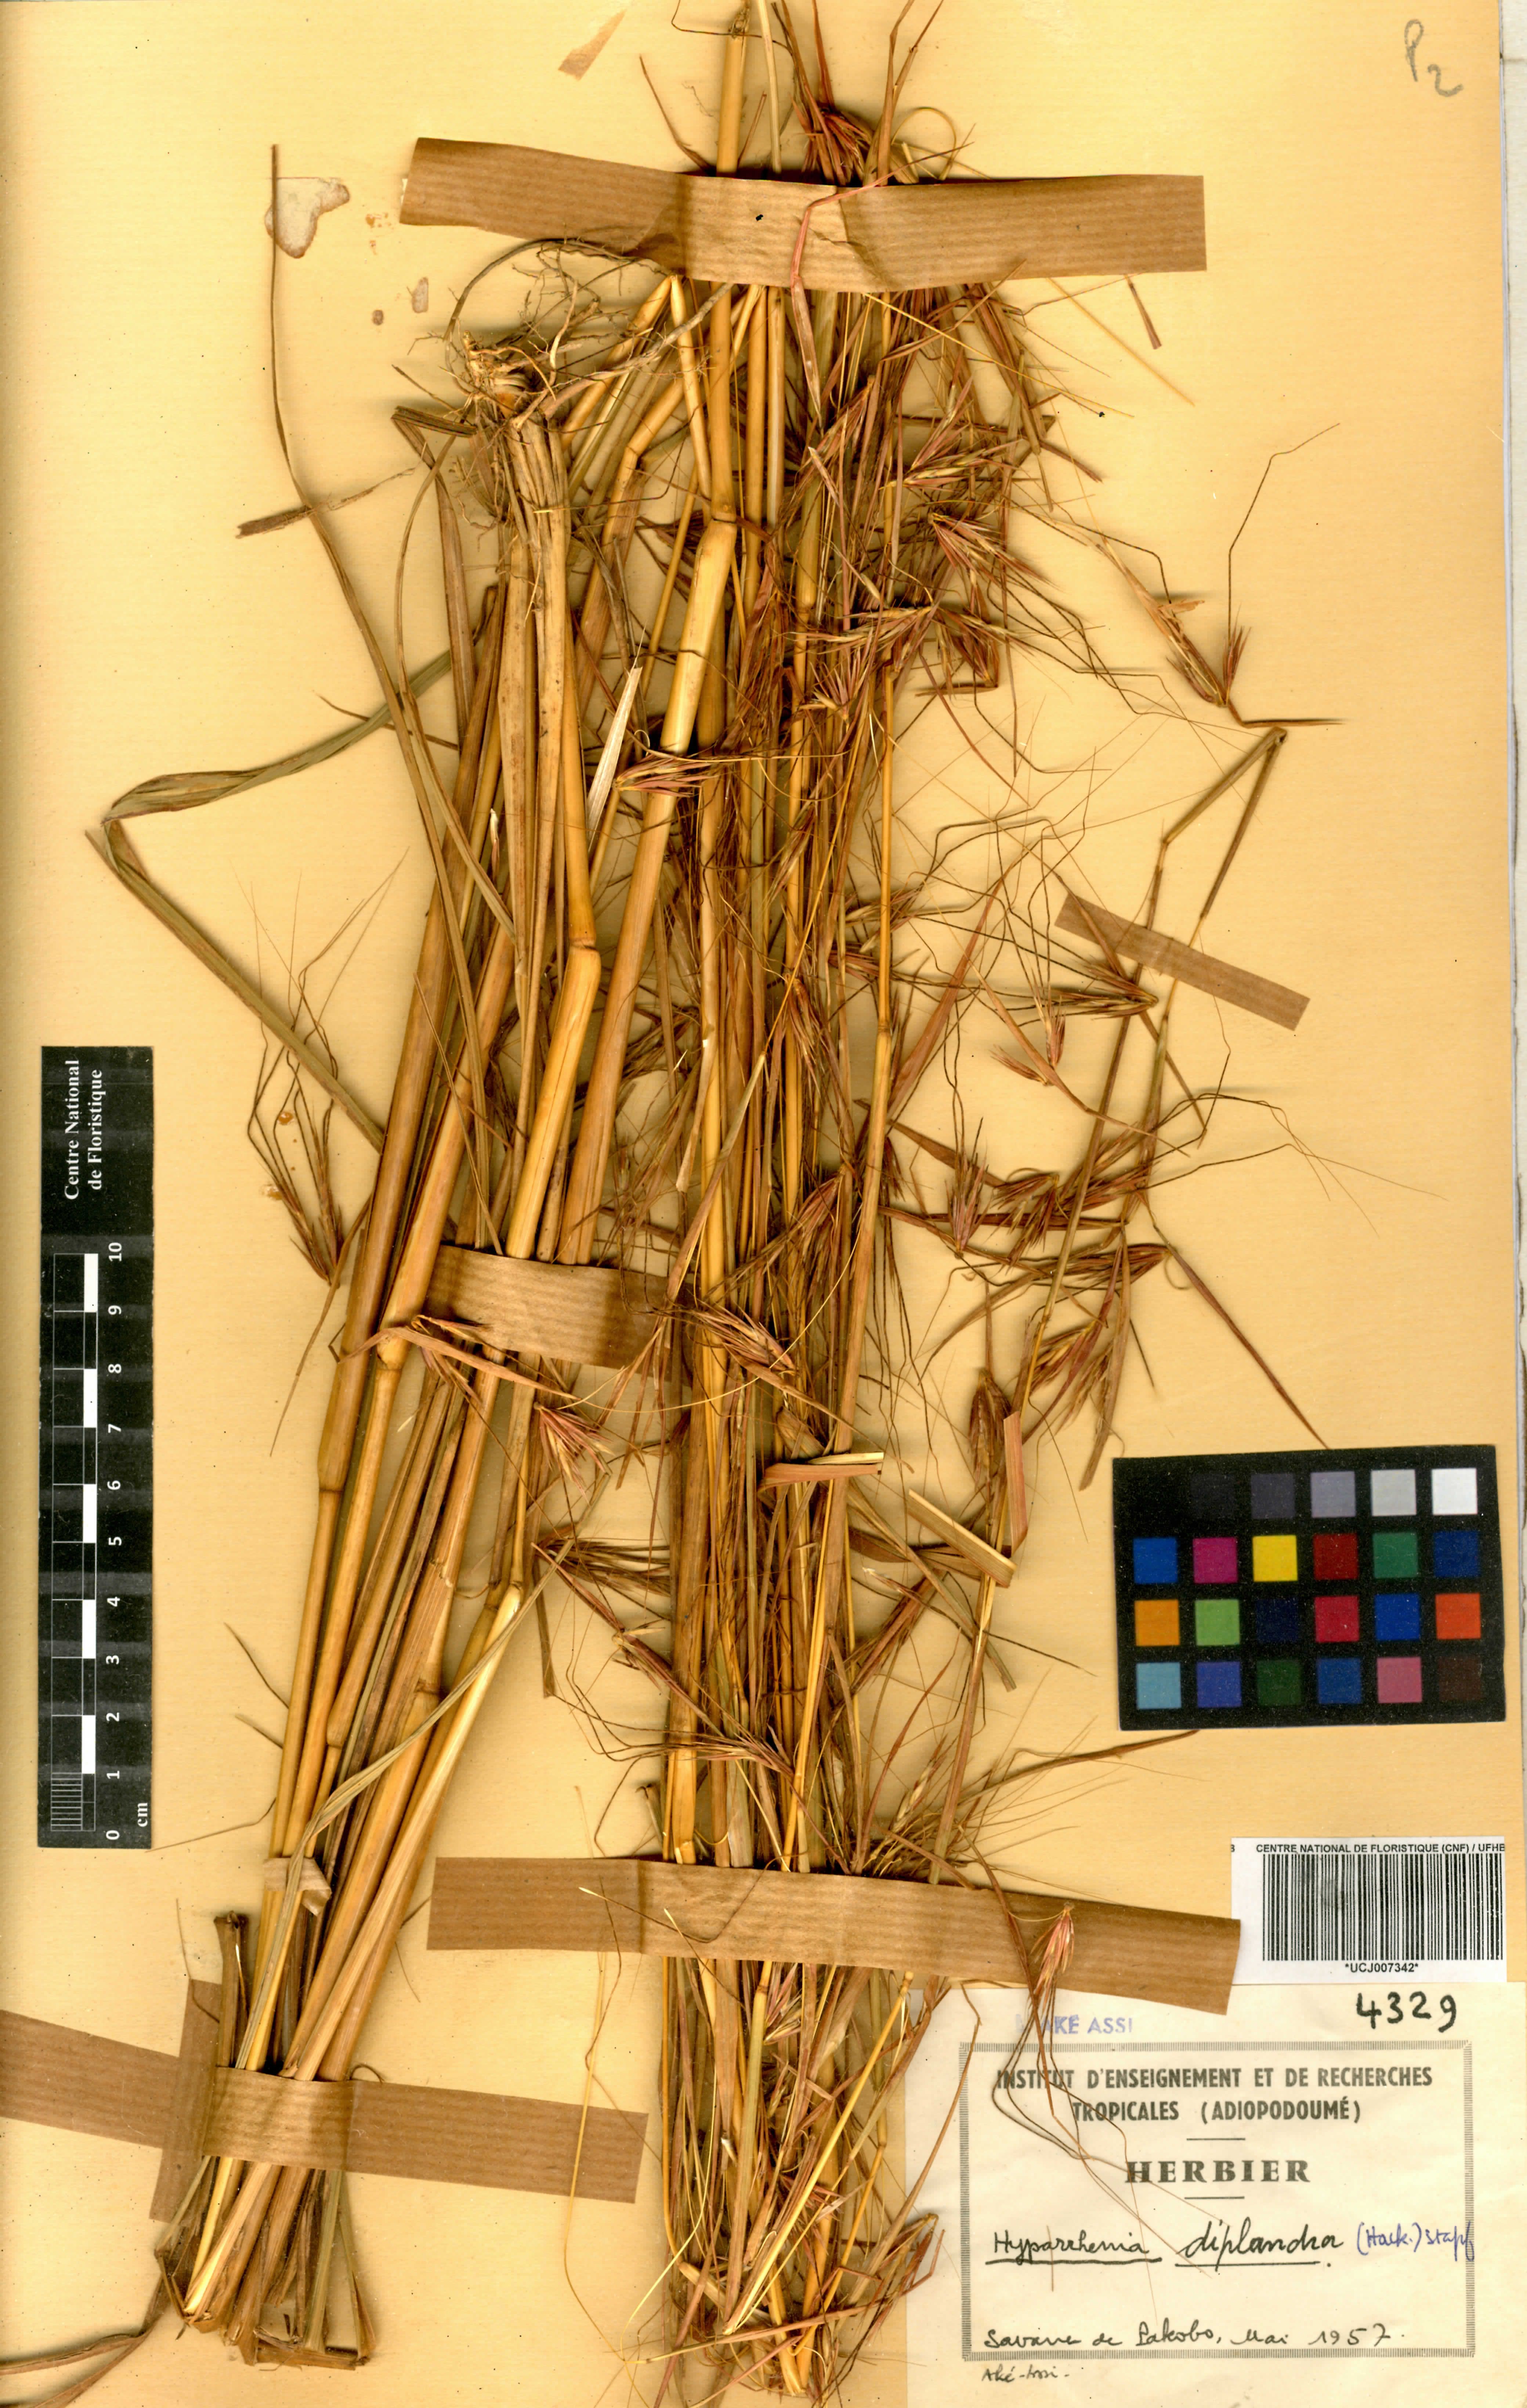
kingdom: Plantae
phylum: Tracheophyta
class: Liliopsida
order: Poales
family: Poaceae
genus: Hyparrhenia
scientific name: Hyparrhenia diplandra
